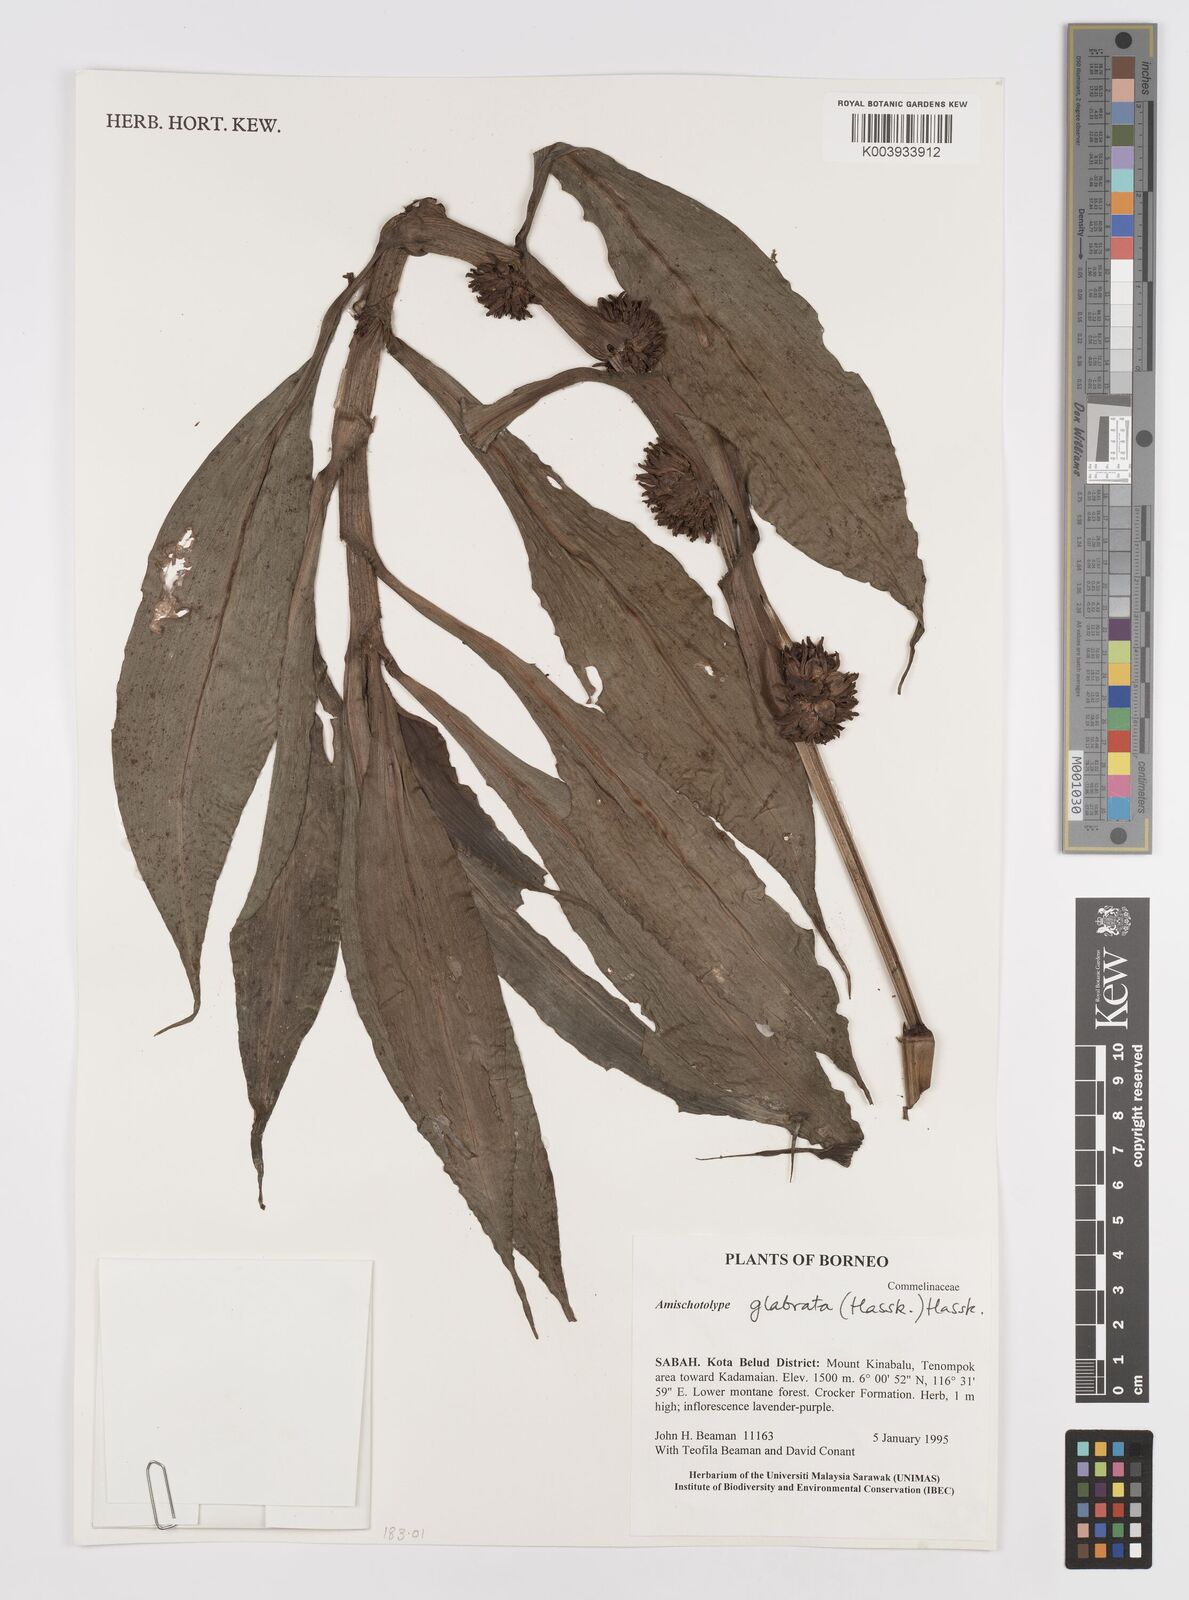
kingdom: Plantae
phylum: Tracheophyta
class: Liliopsida
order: Commelinales
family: Commelinaceae
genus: Amischotolype
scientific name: Amischotolype glabrata
